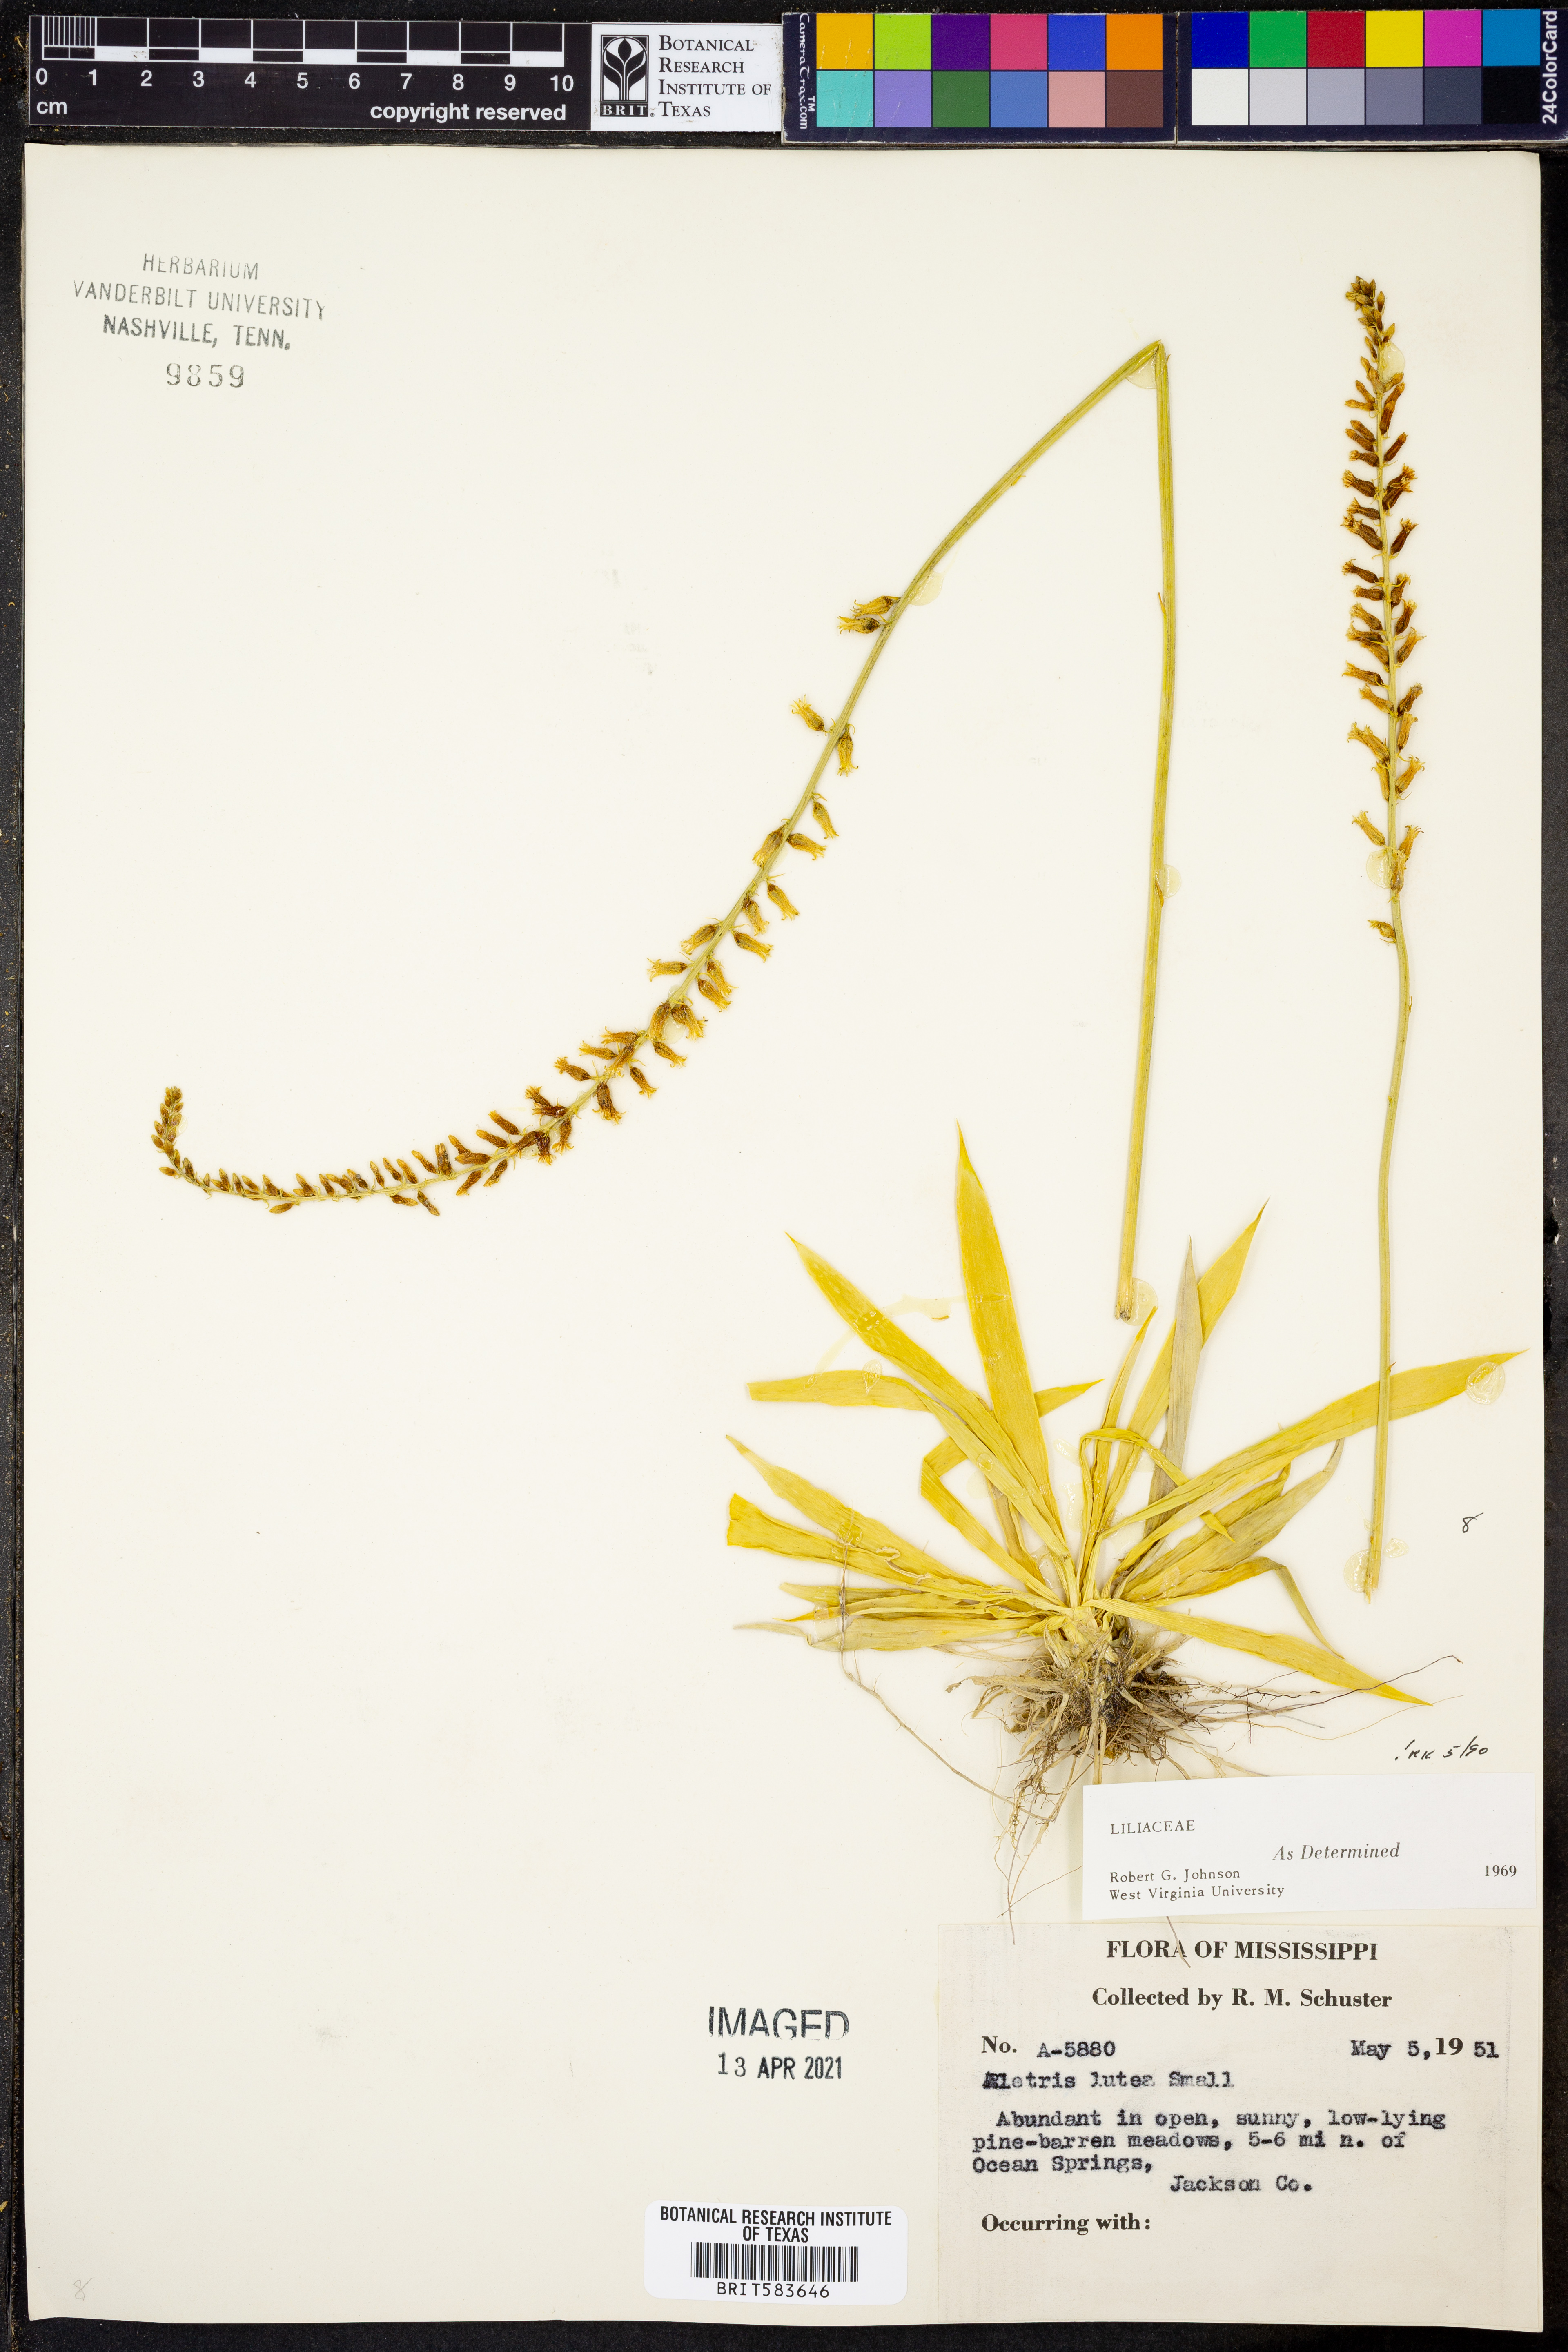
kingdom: Plantae
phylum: Tracheophyta
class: Liliopsida
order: Dioscoreales
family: Nartheciaceae
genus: Aletris
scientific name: Aletris lutea
